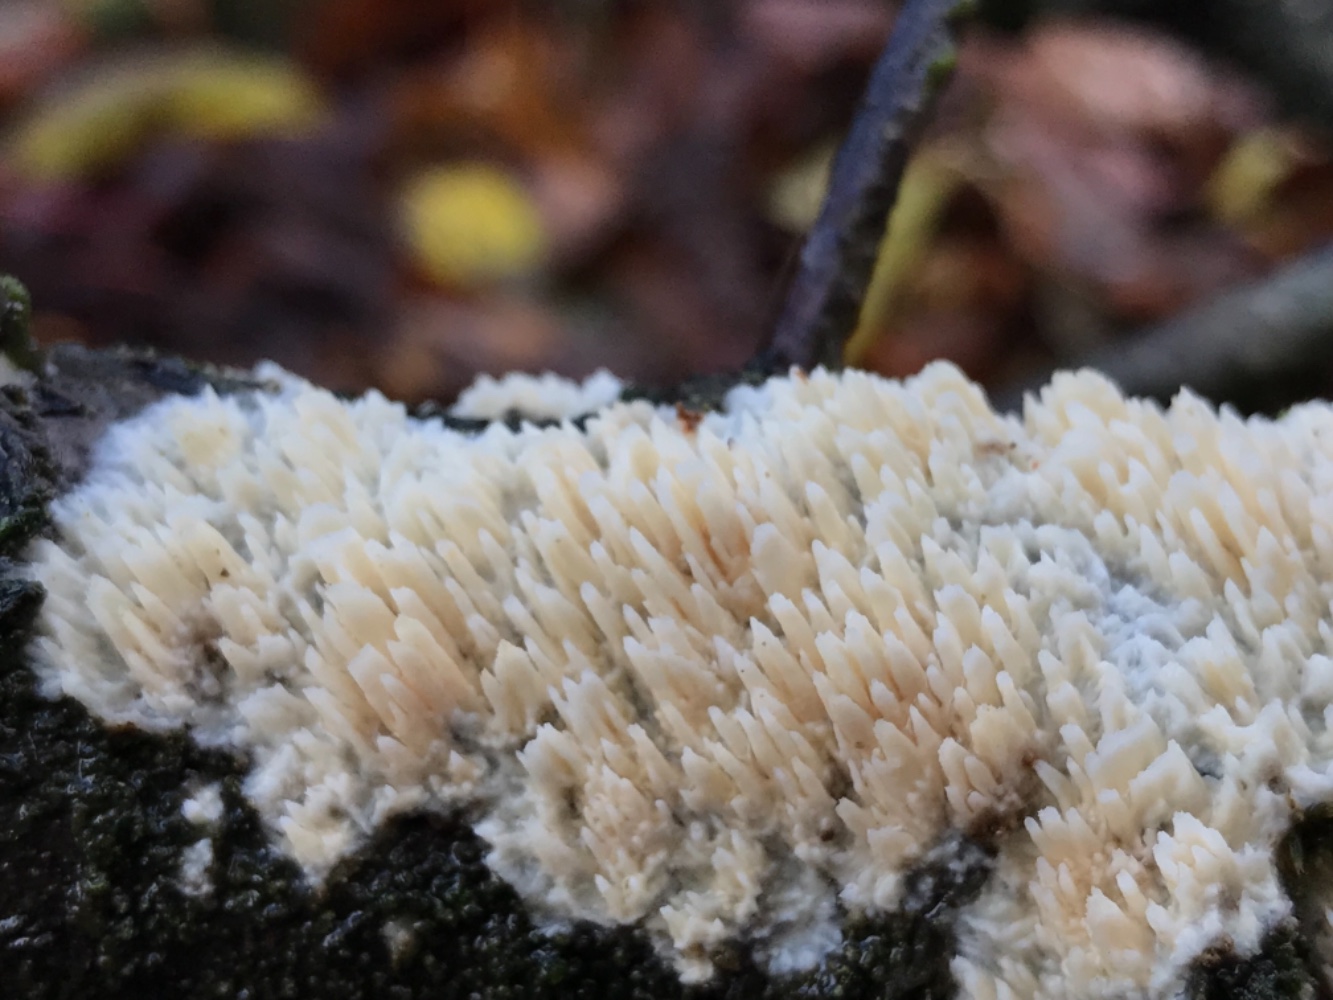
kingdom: Fungi
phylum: Basidiomycota
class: Agaricomycetes
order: Hymenochaetales
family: Schizoporaceae
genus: Xylodon
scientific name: Xylodon radula
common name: grovtandet kalkskind
